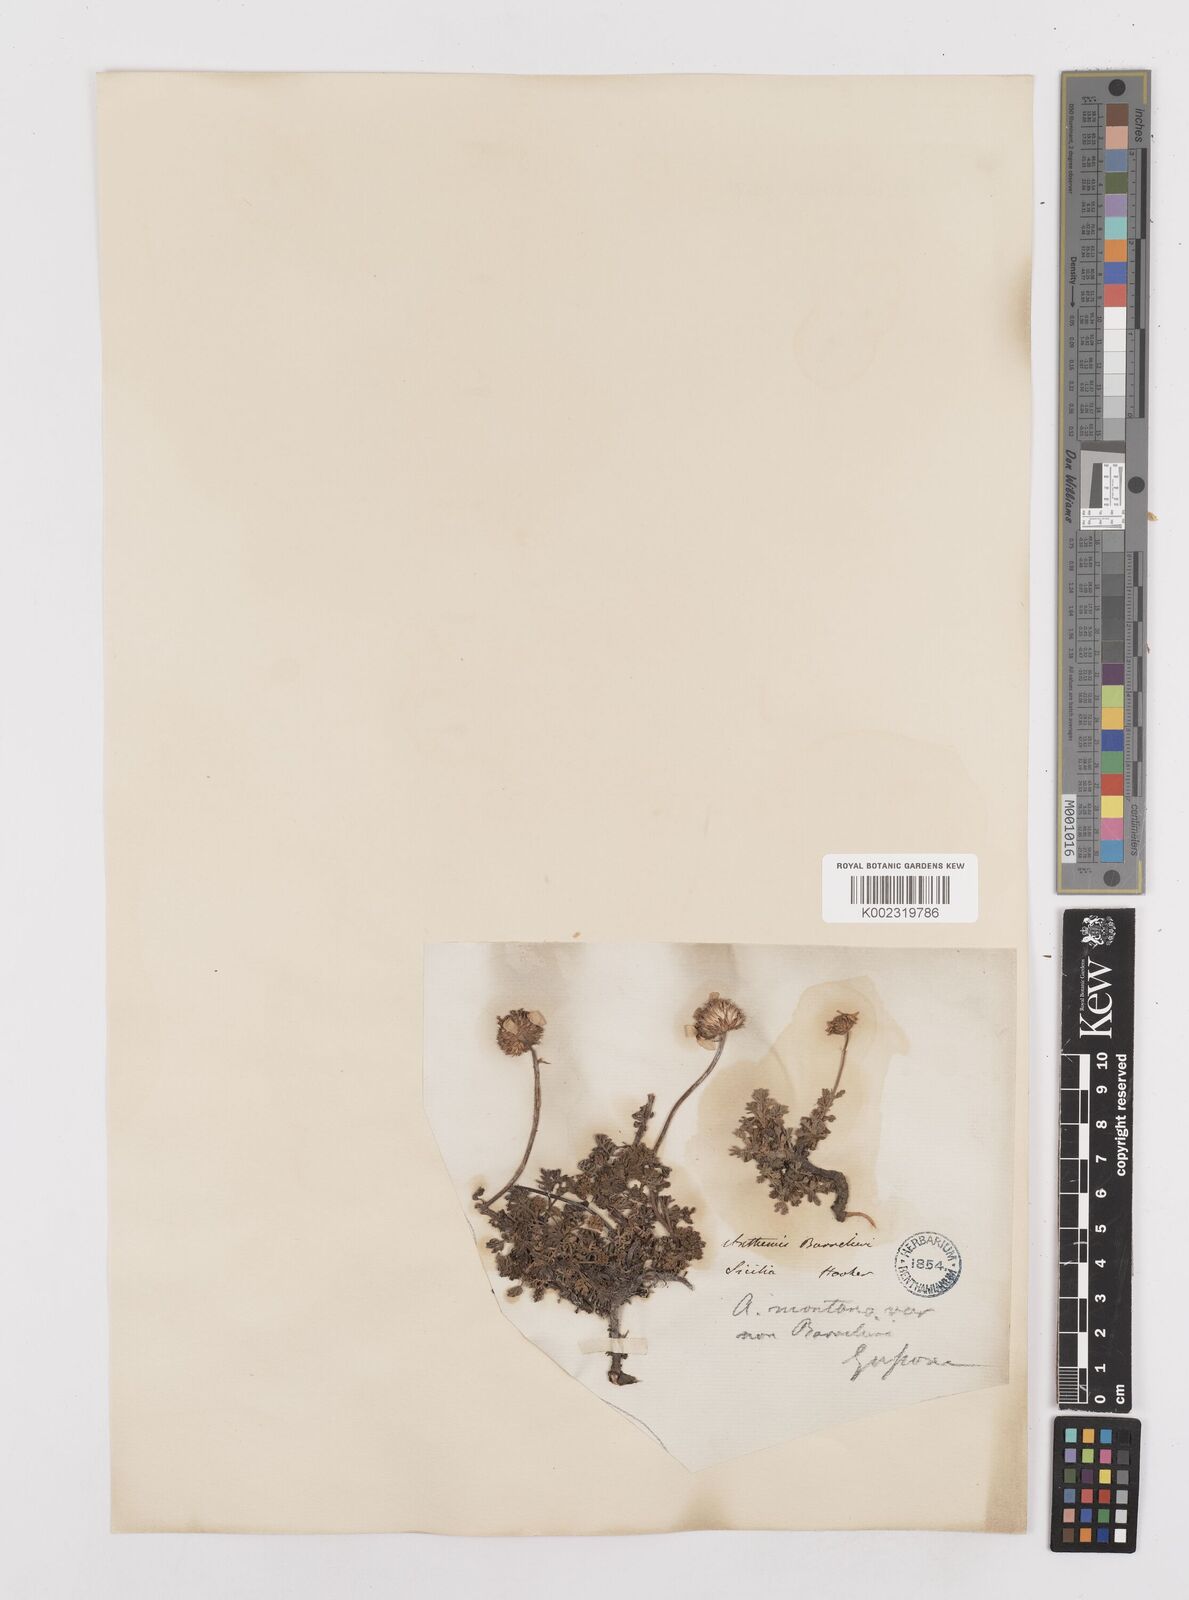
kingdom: Plantae
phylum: Tracheophyta
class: Magnoliopsida
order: Asterales
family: Asteraceae
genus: Achillea
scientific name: Achillea barrelieri
